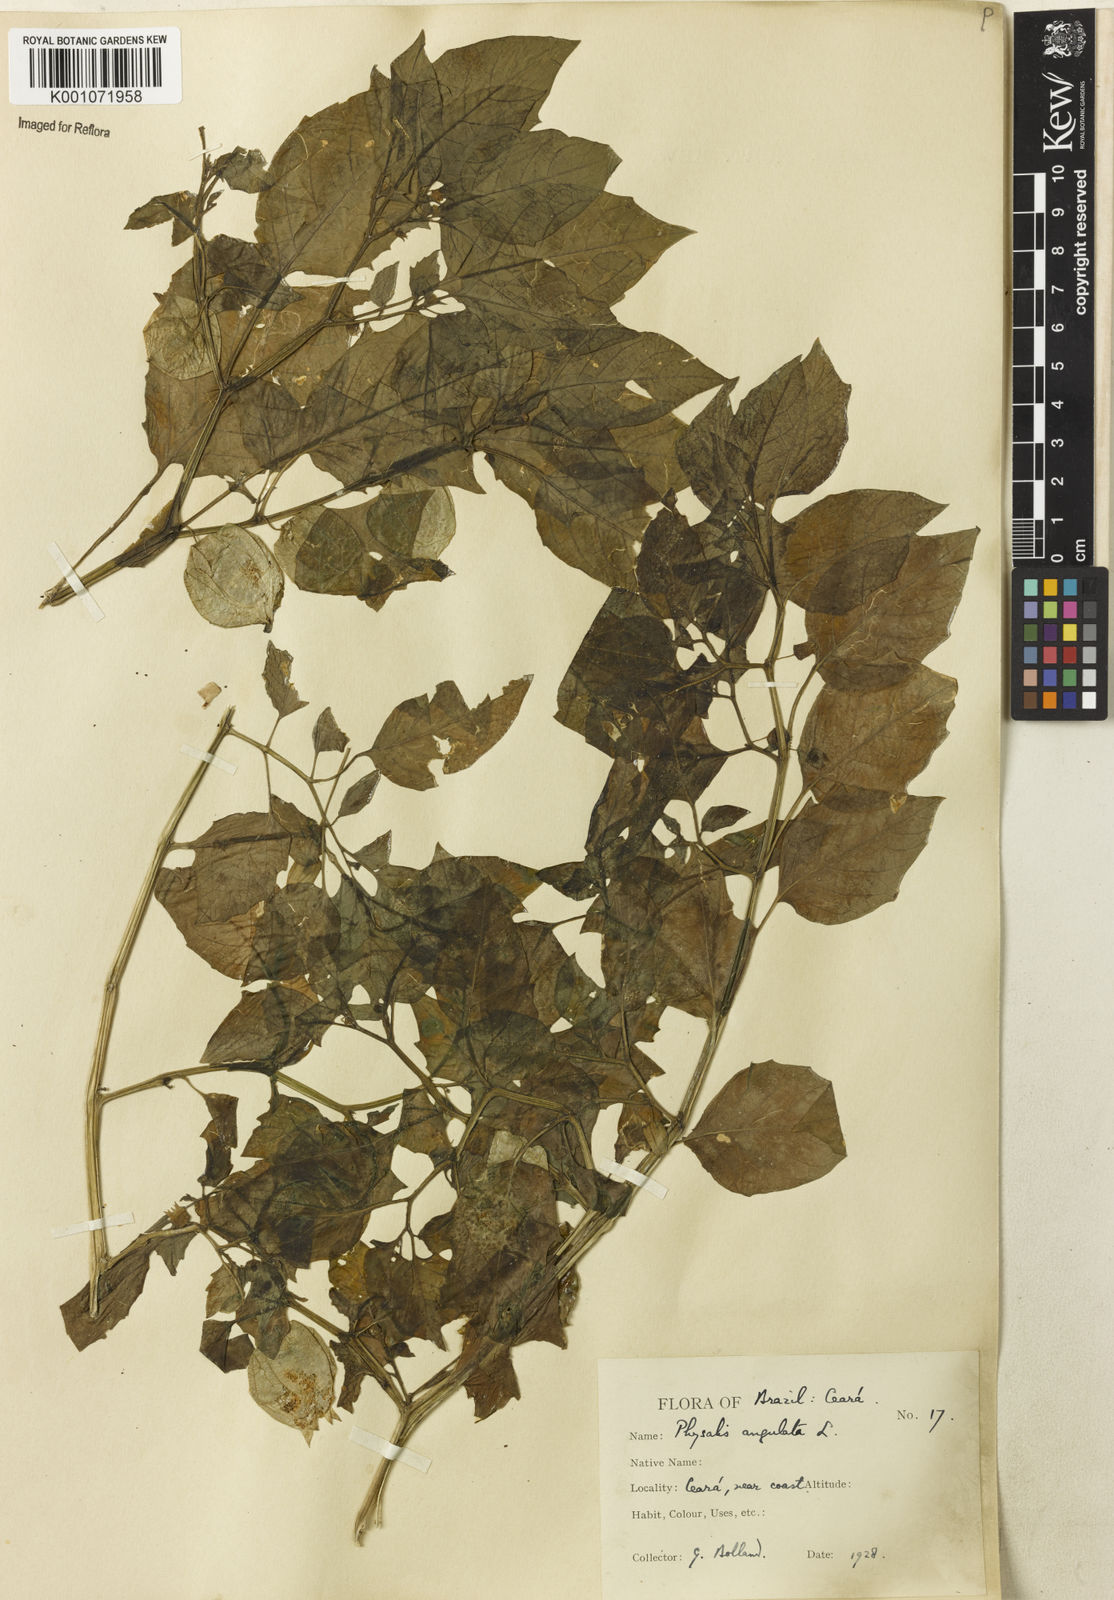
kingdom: Plantae
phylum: Tracheophyta
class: Magnoliopsida
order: Solanales
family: Solanaceae
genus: Physalis
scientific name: Physalis angulata
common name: Angular winter-cherry
